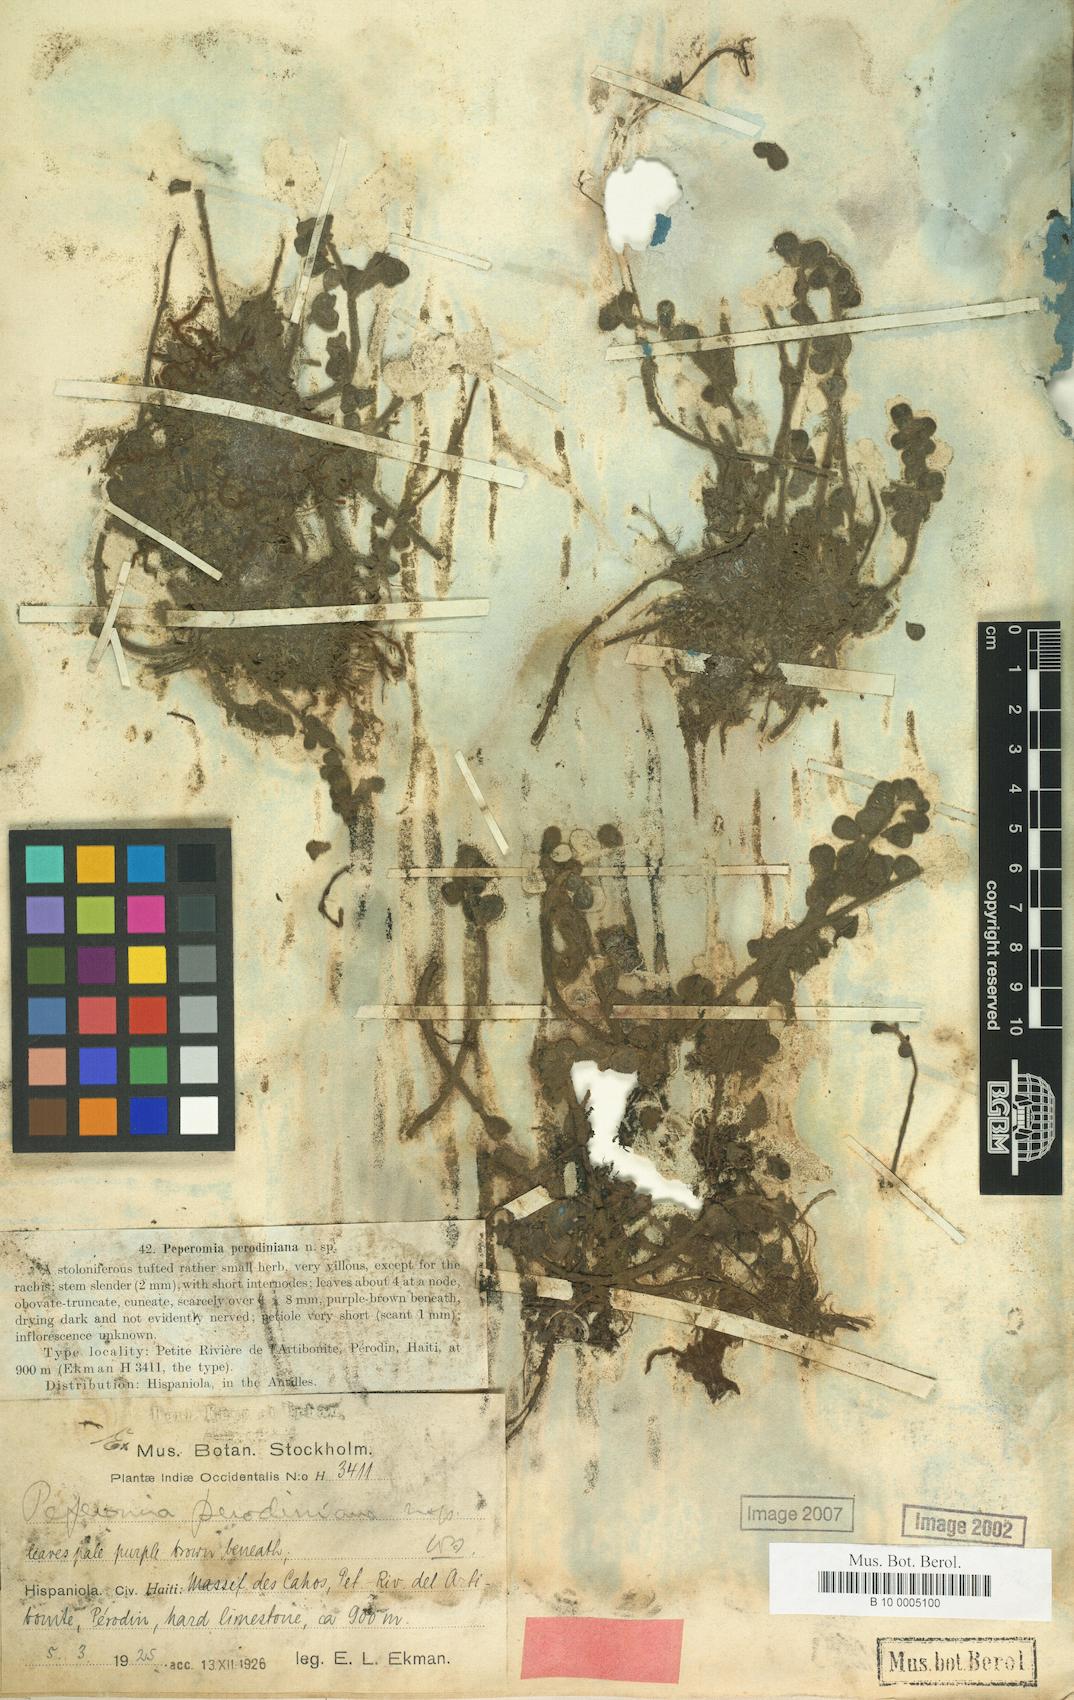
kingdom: Plantae
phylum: Tracheophyta
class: Magnoliopsida
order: Piperales
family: Piperaceae
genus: Peperomia
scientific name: Peperomia perodiniana
